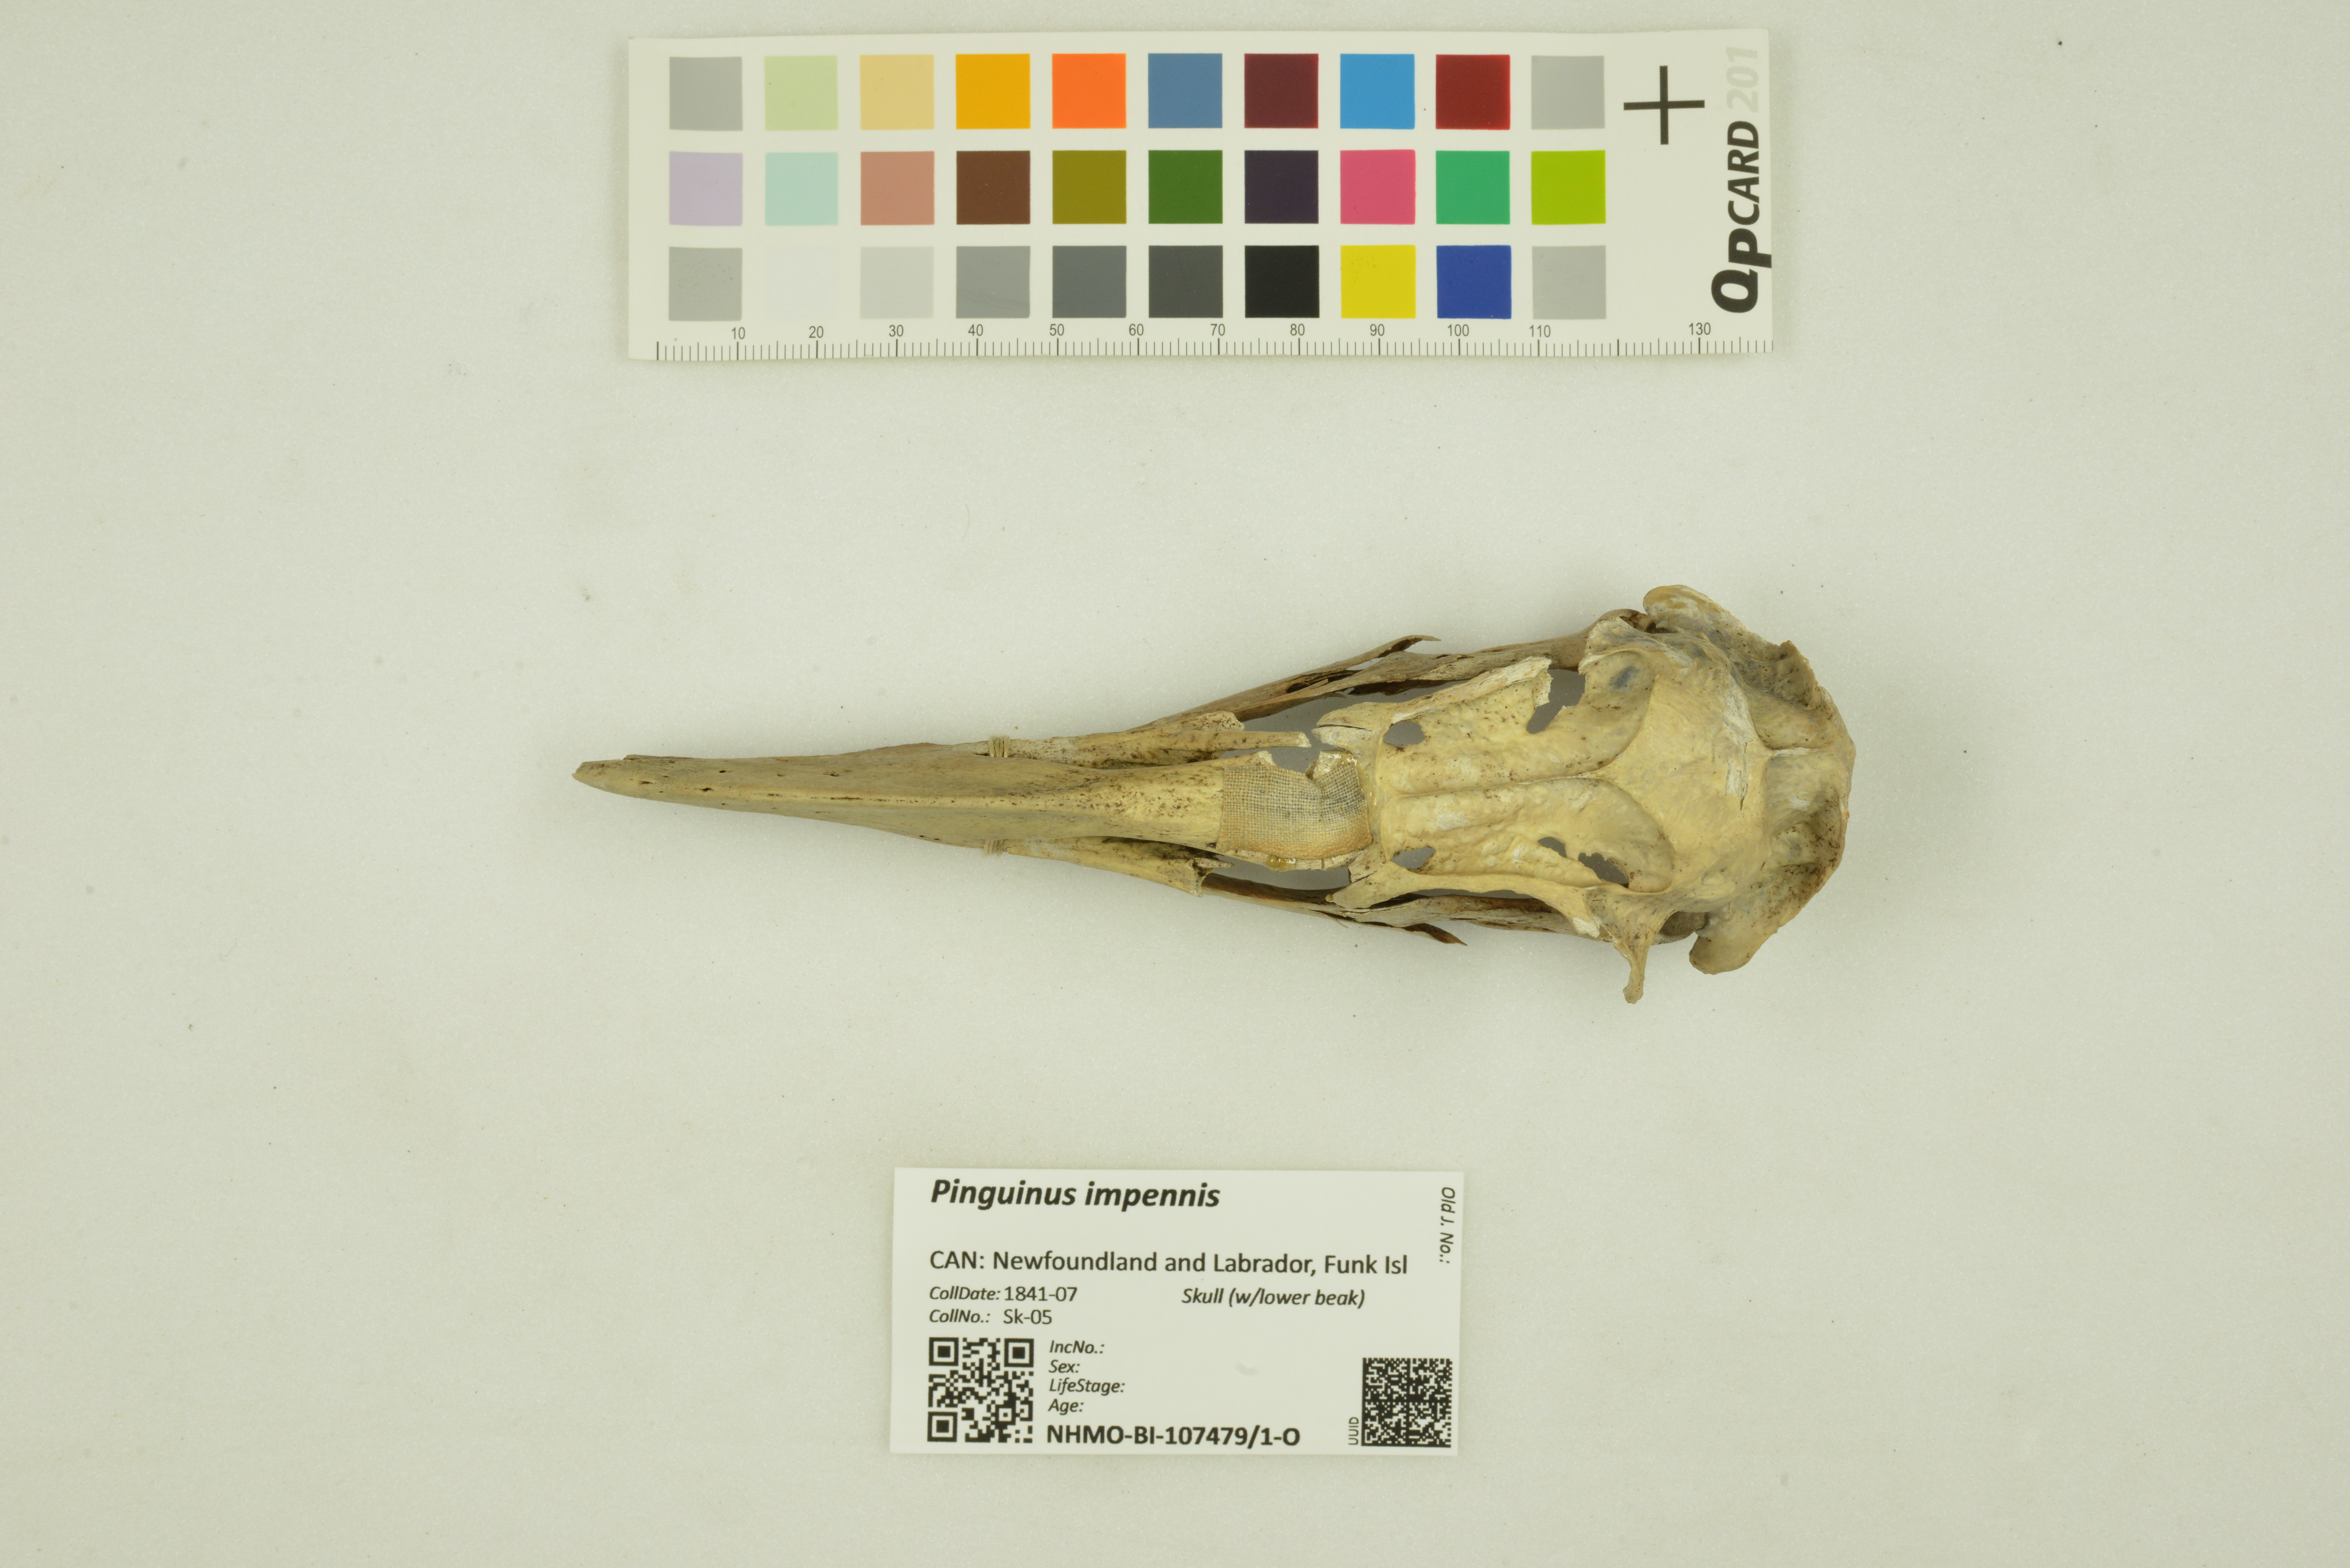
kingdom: Animalia
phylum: Chordata
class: Aves
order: Charadriiformes
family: Alcidae
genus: Pinguinus
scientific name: Pinguinus impennis
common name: Great auk
